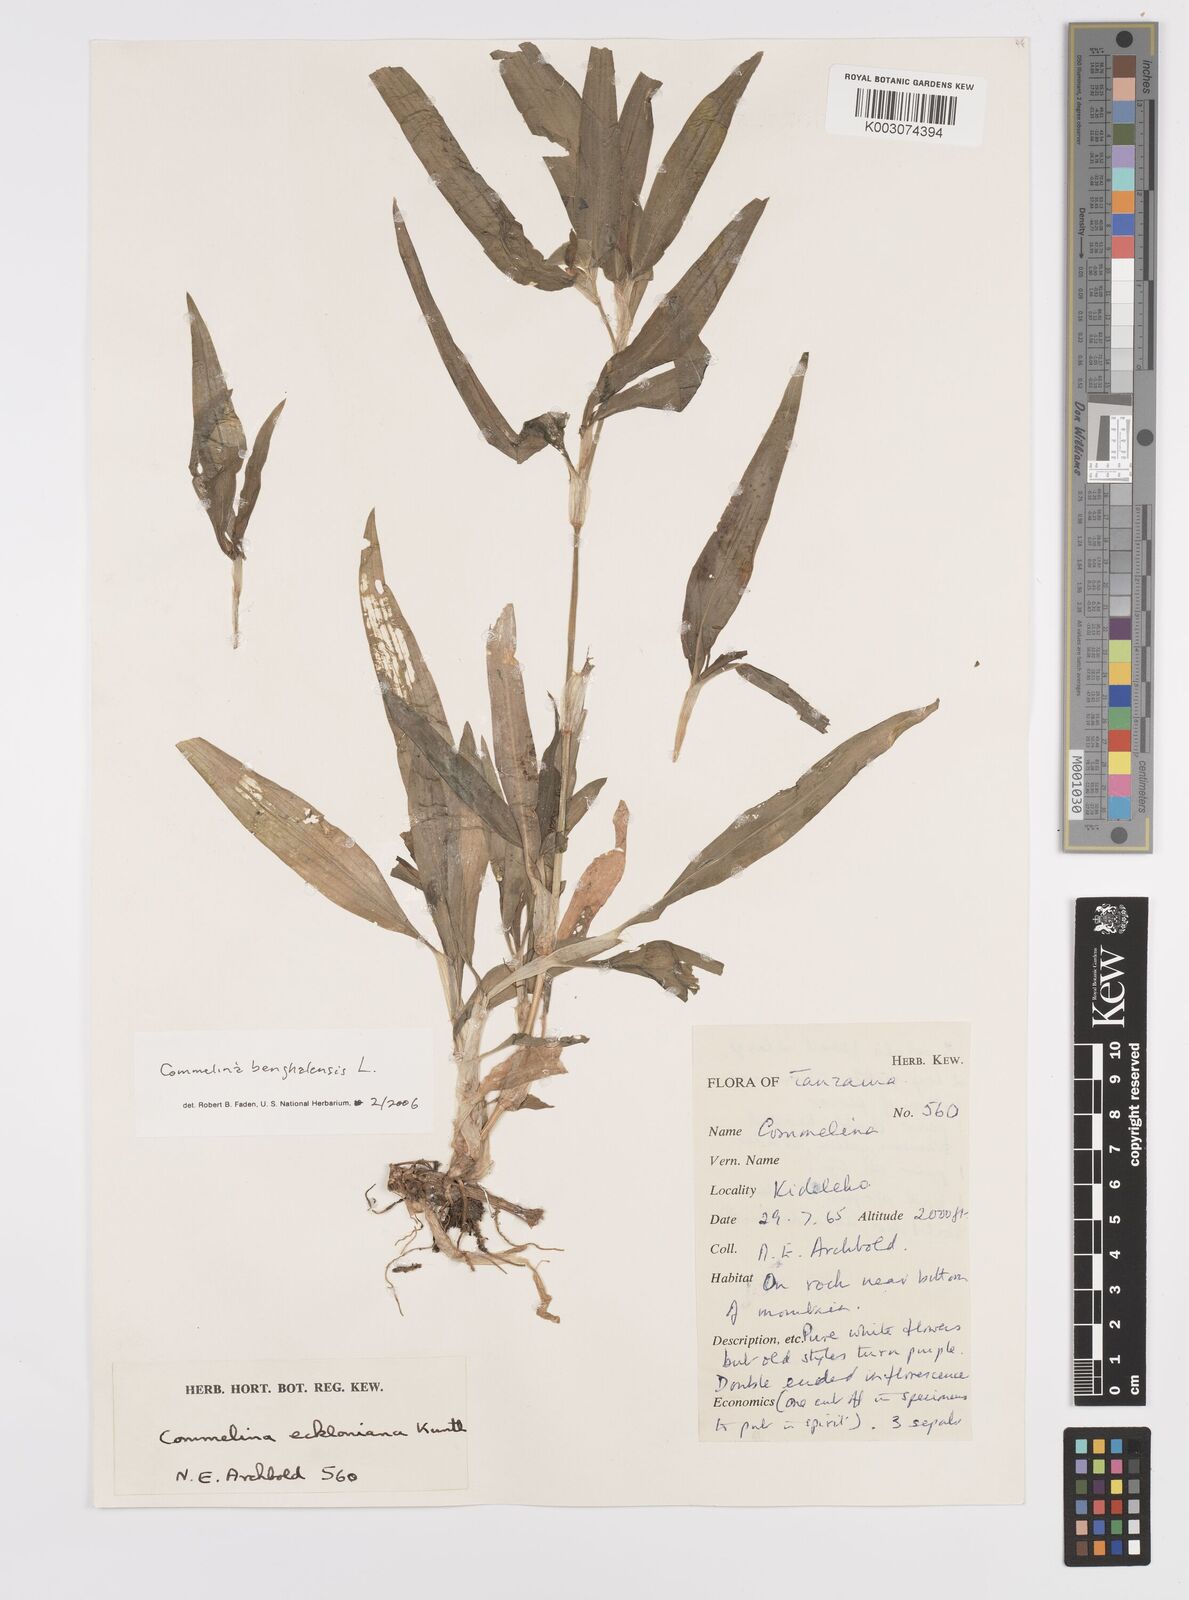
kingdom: Plantae
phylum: Tracheophyta
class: Liliopsida
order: Commelinales
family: Commelinaceae
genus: Commelina
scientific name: Commelina benghalensis
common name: Jio
